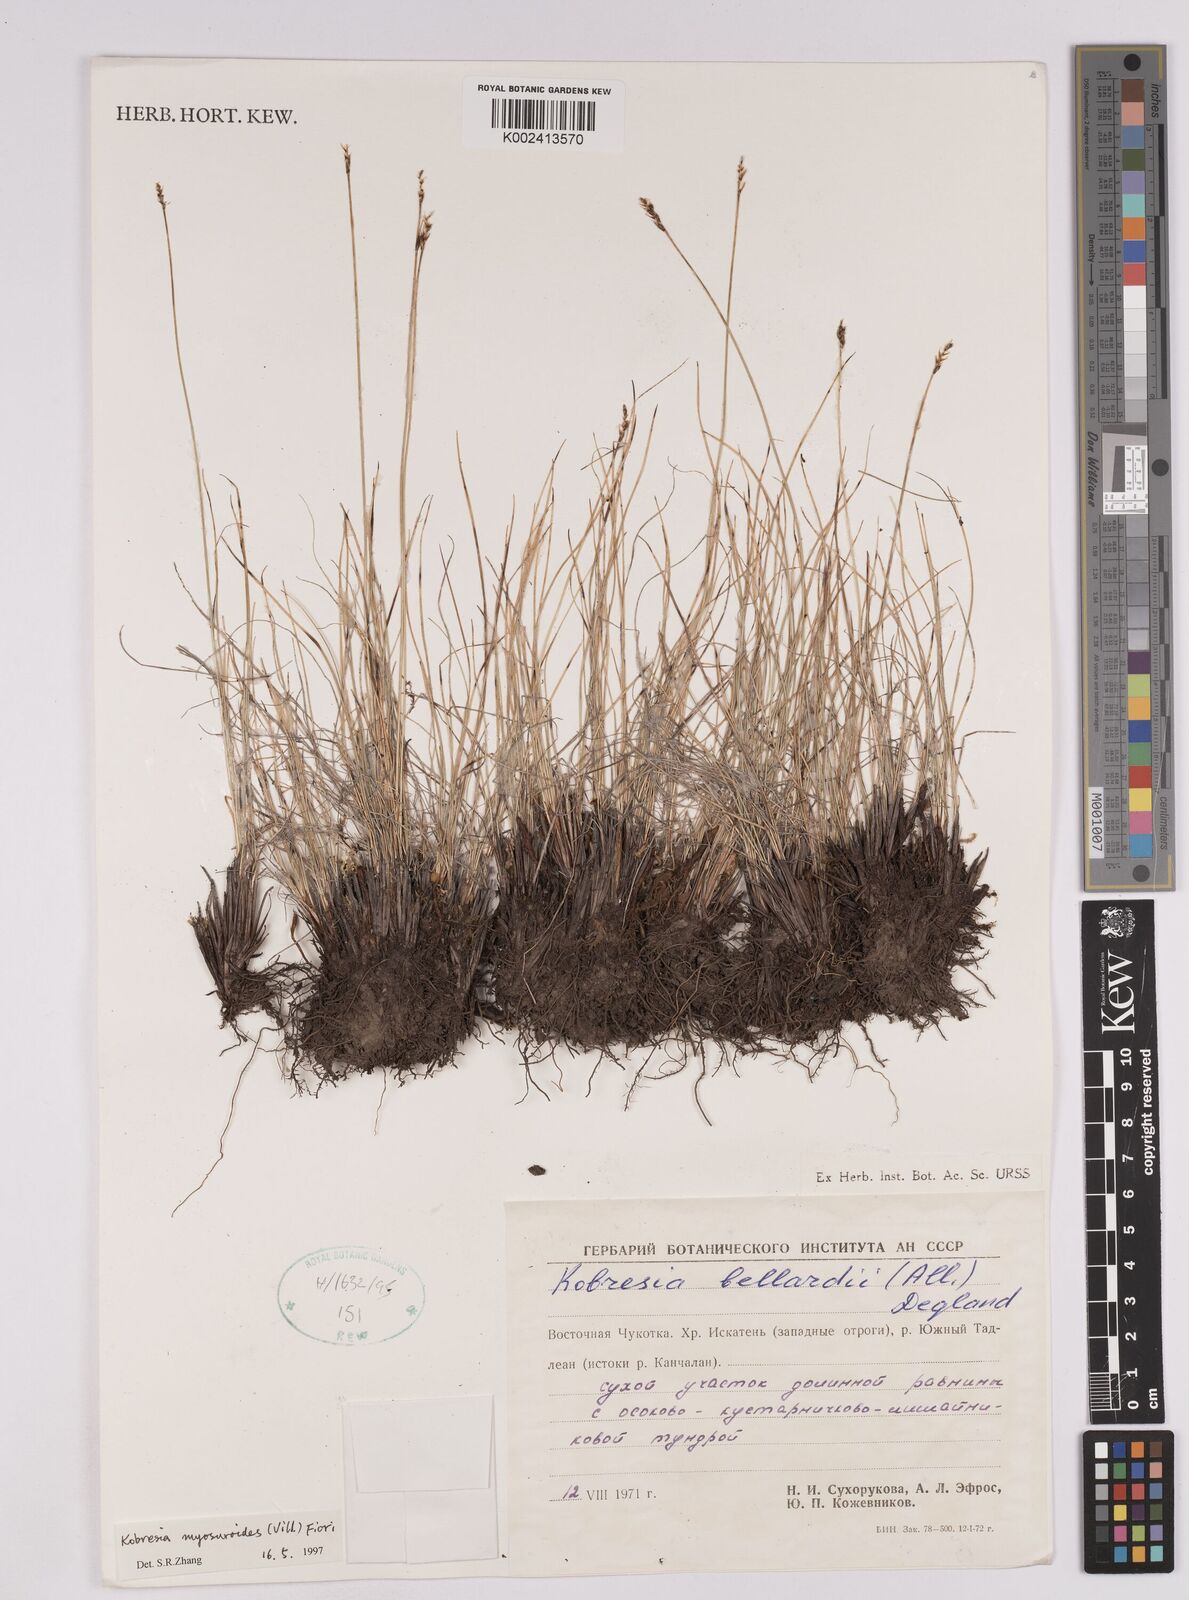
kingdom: Plantae
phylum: Tracheophyta
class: Liliopsida
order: Poales
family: Cyperaceae
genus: Carex
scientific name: Carex myosuroides
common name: Bellard's bog sedge
